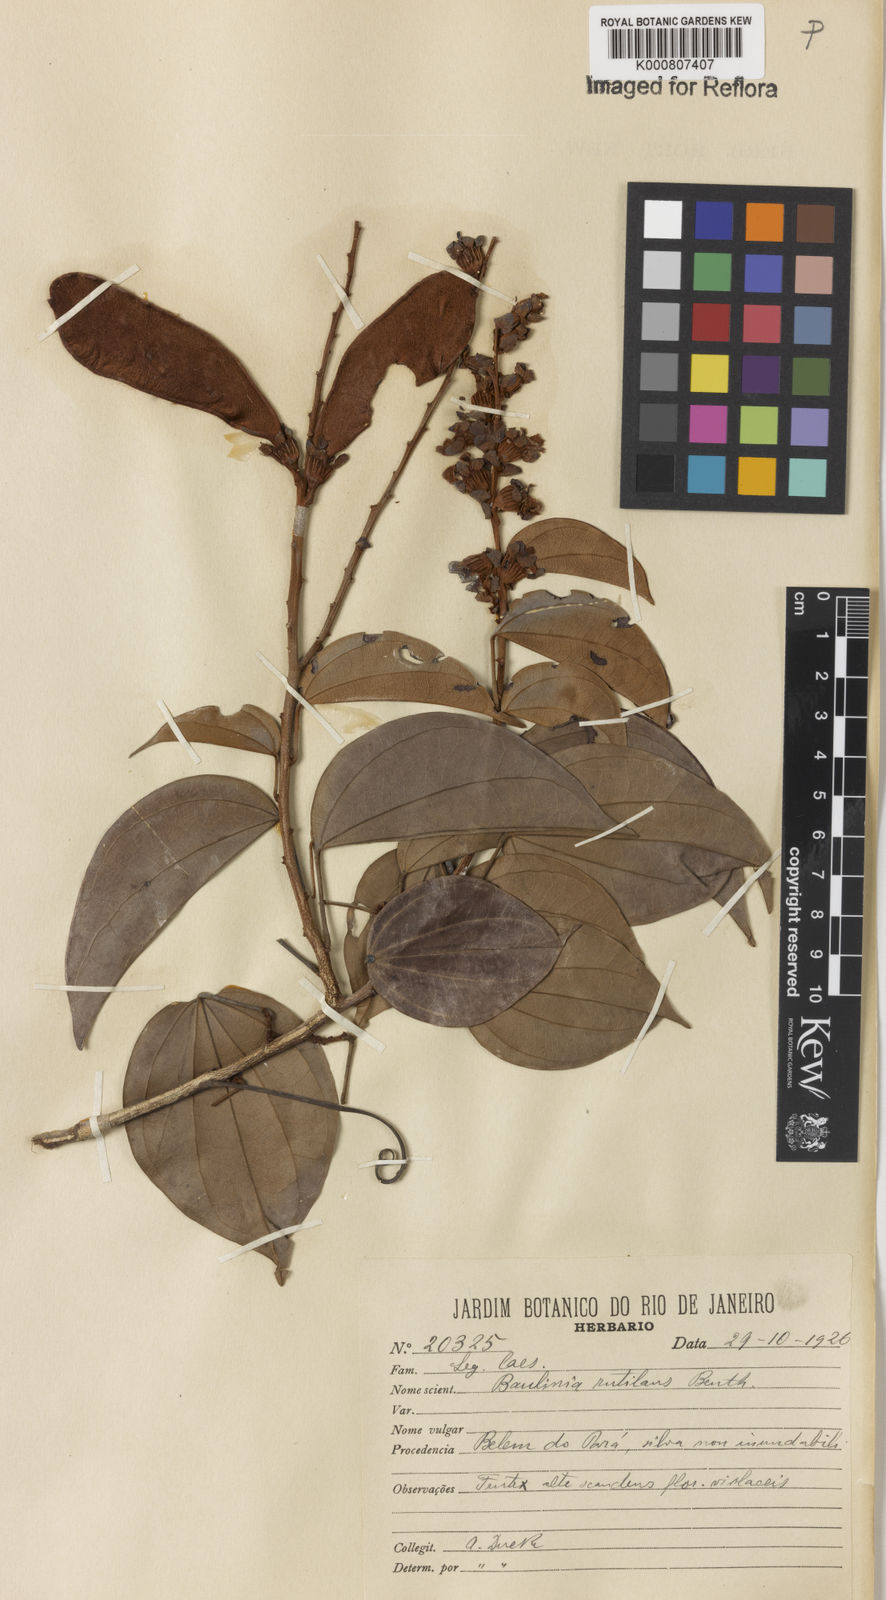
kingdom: Plantae
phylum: Tracheophyta
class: Magnoliopsida
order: Fabales
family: Fabaceae
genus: Schnella
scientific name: Schnella rutilans
